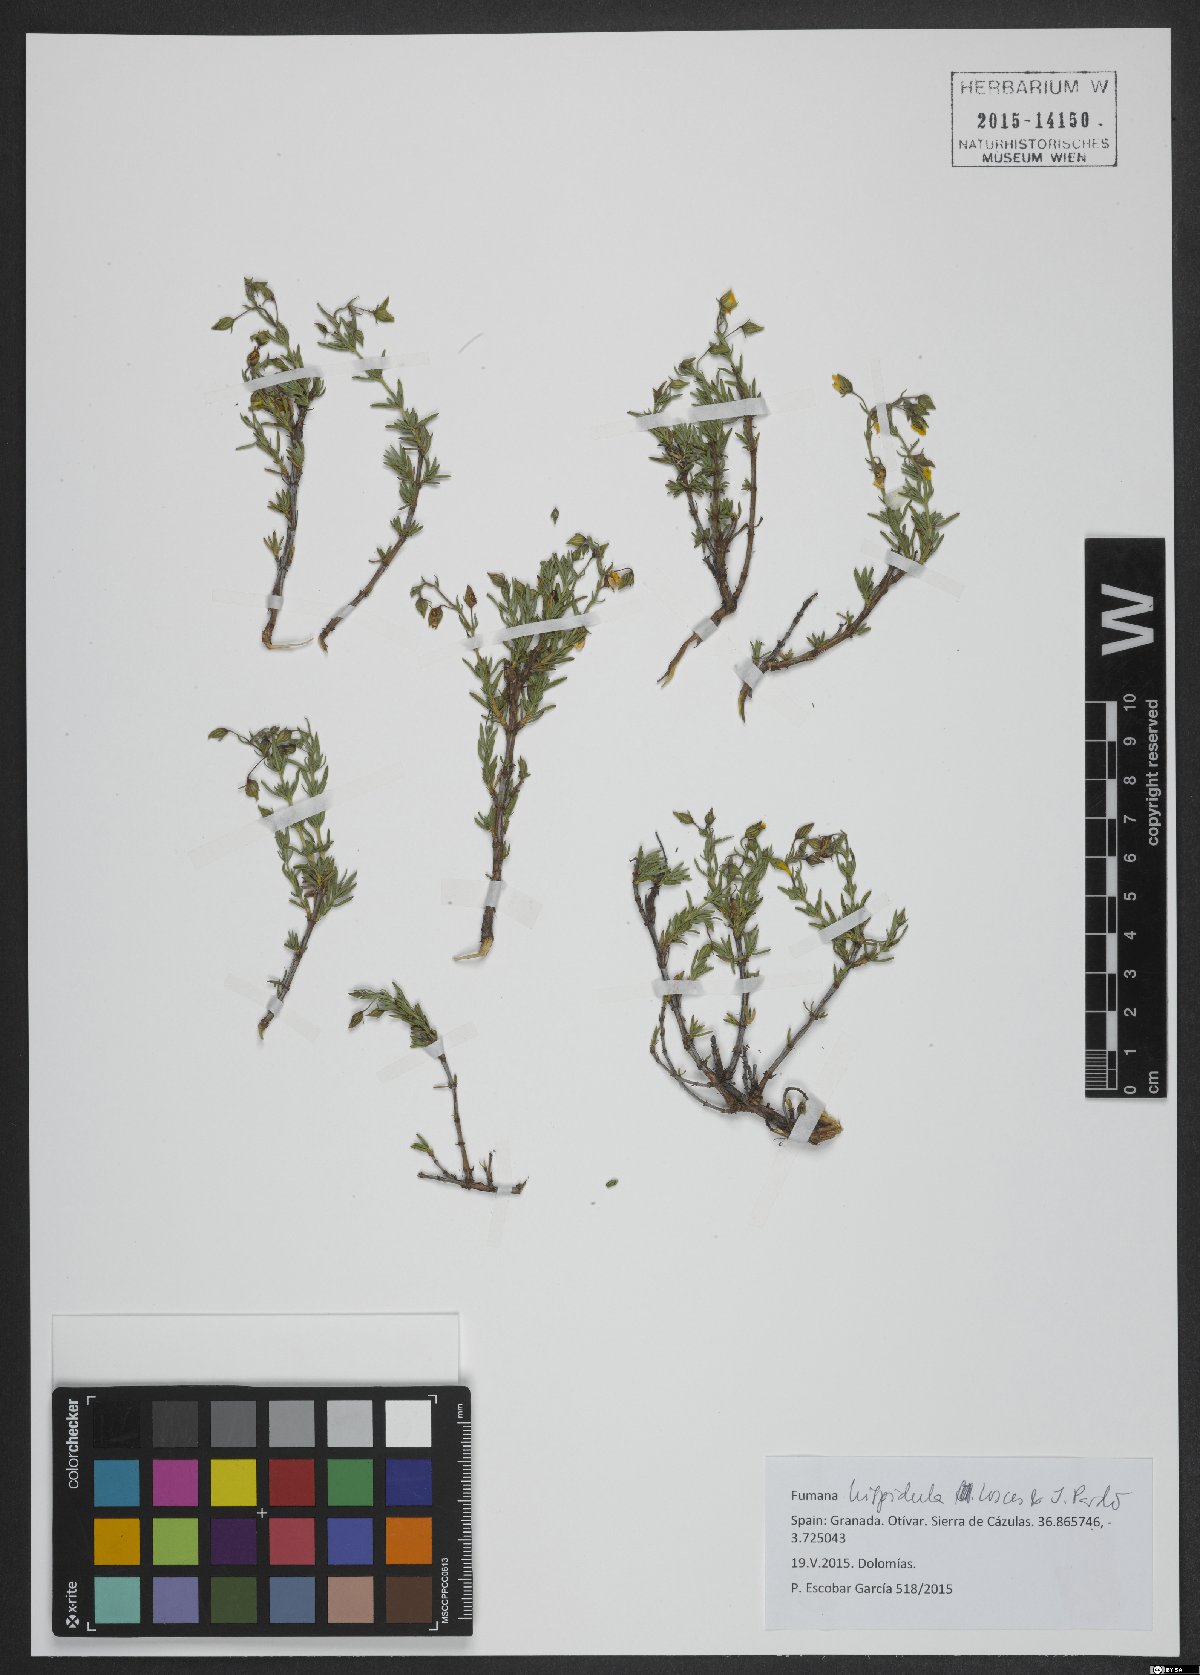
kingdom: Plantae
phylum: Tracheophyta
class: Magnoliopsida
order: Malvales
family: Cistaceae
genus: Fumana
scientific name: Fumana hispidula
